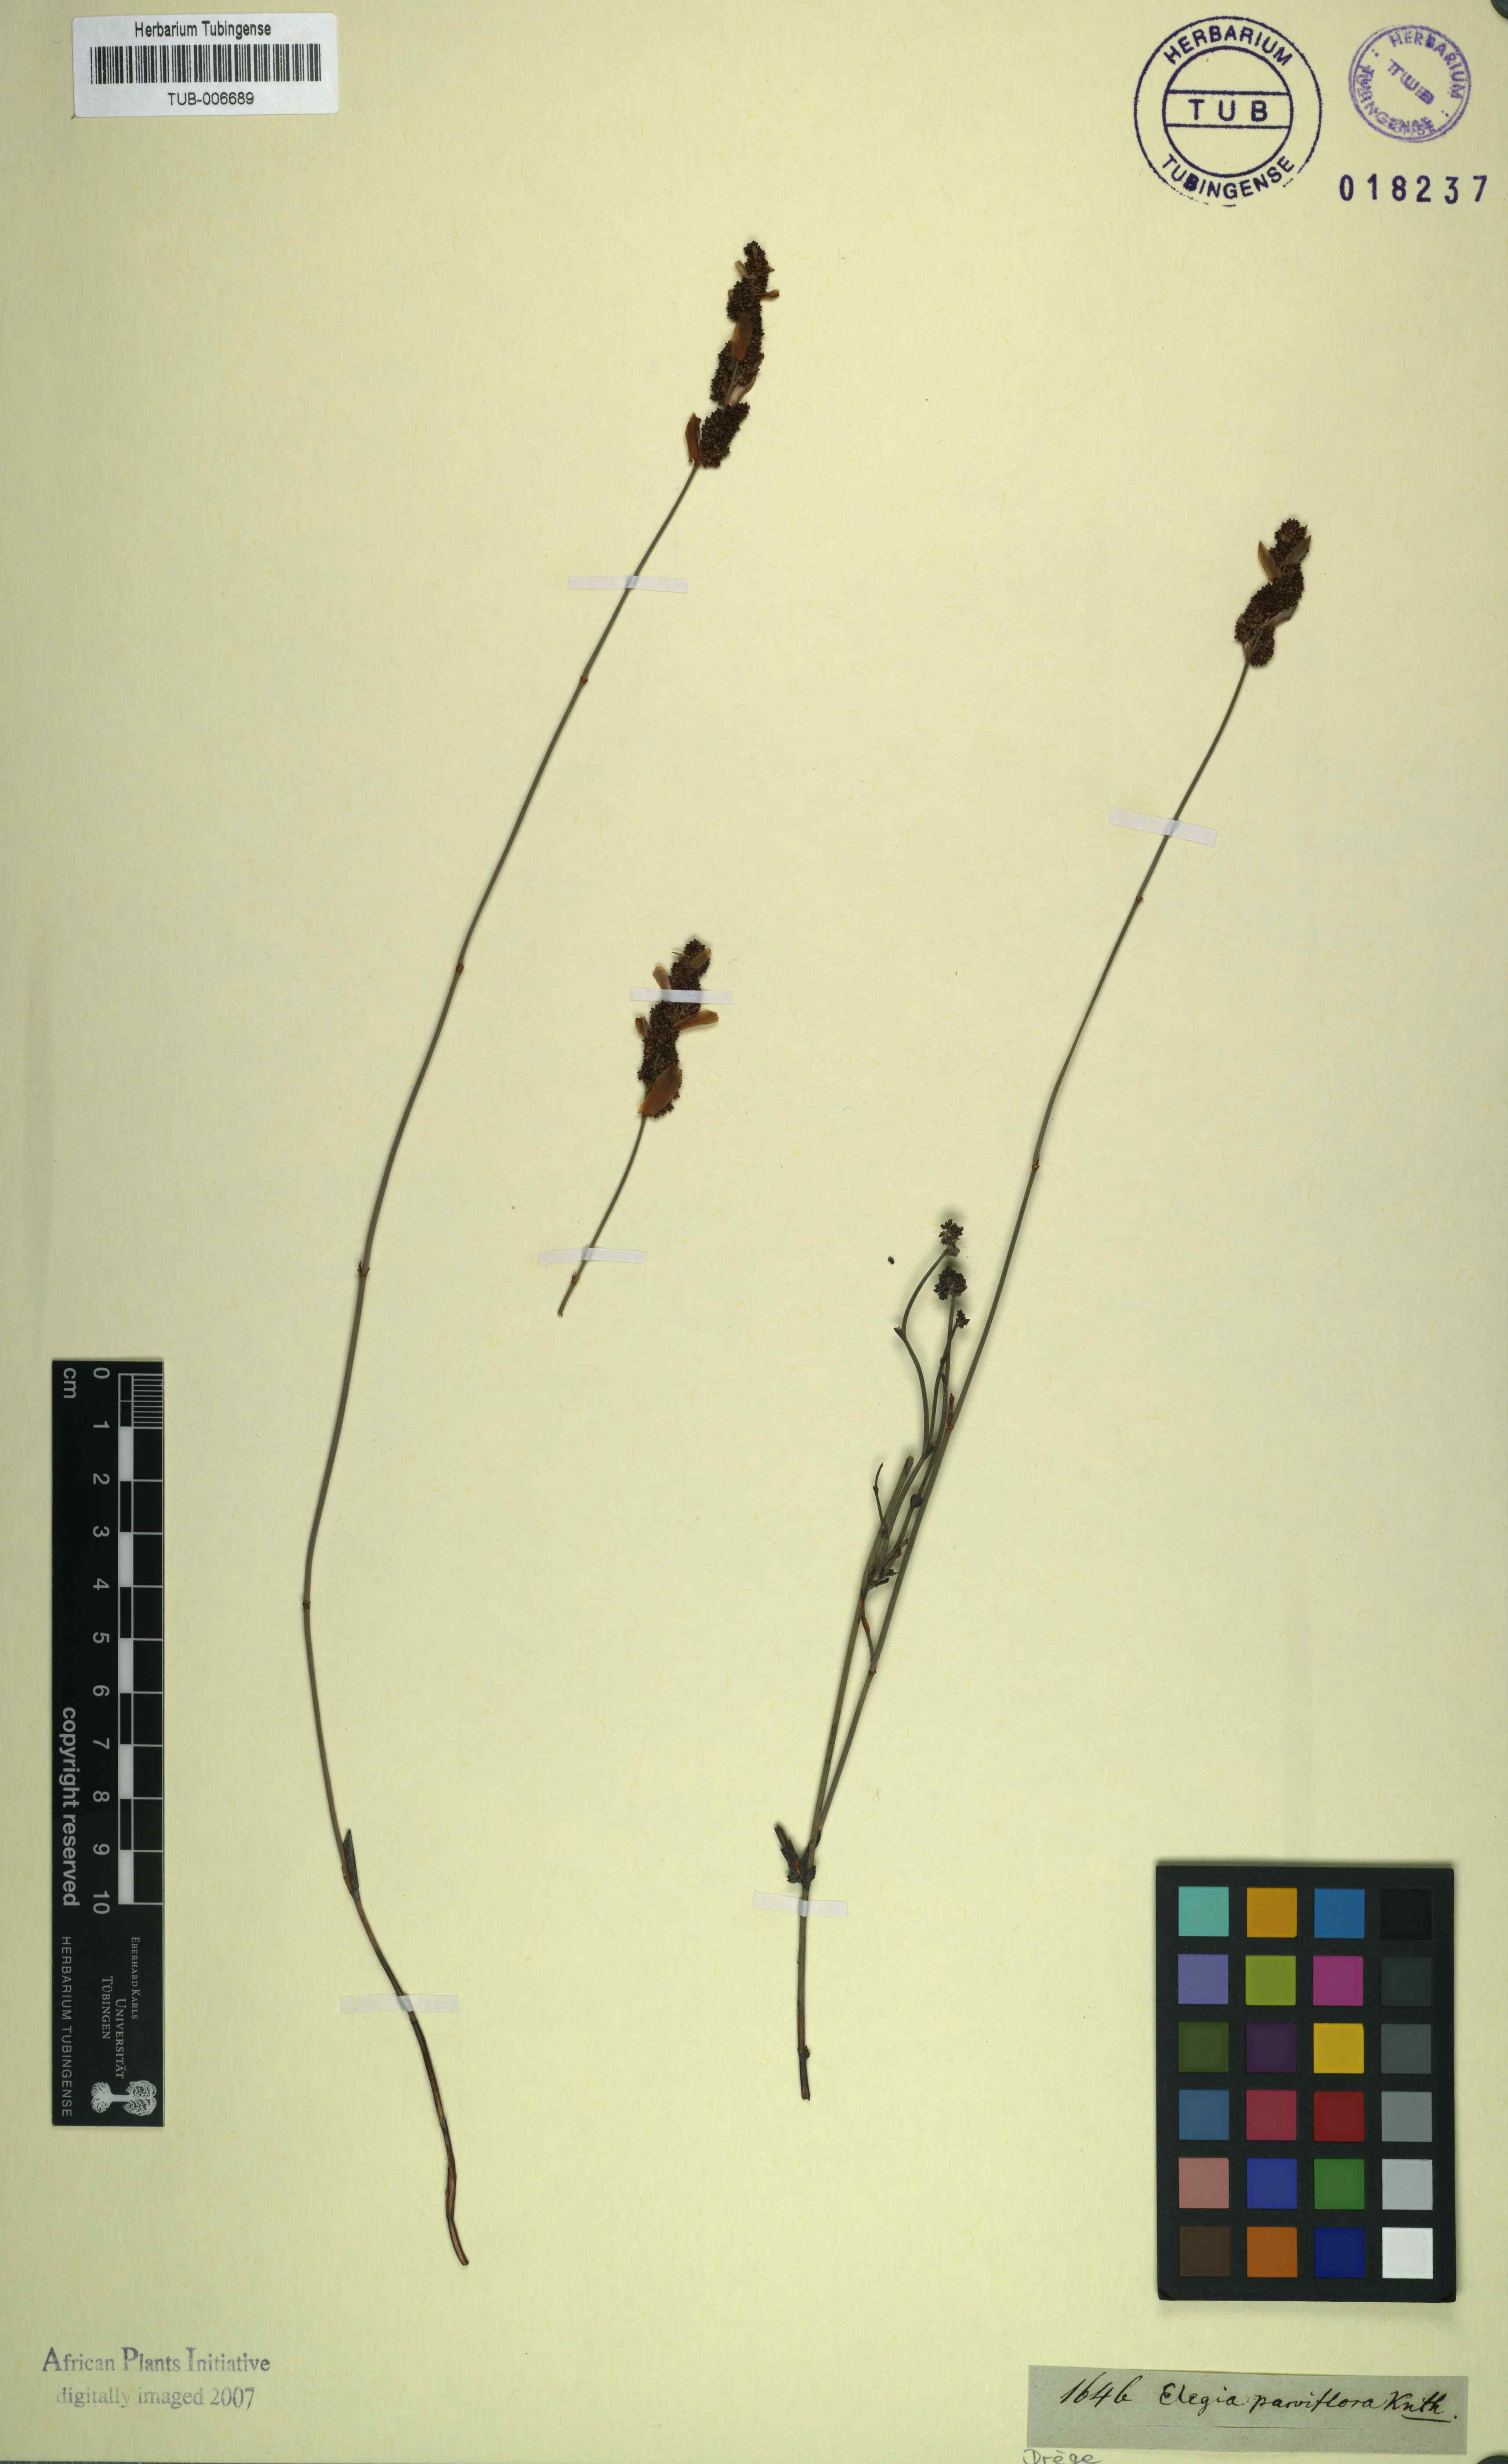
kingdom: Plantae
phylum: Tracheophyta
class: Liliopsida
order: Poales
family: Restionaceae
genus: Cannomois
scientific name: Cannomois parviflora
